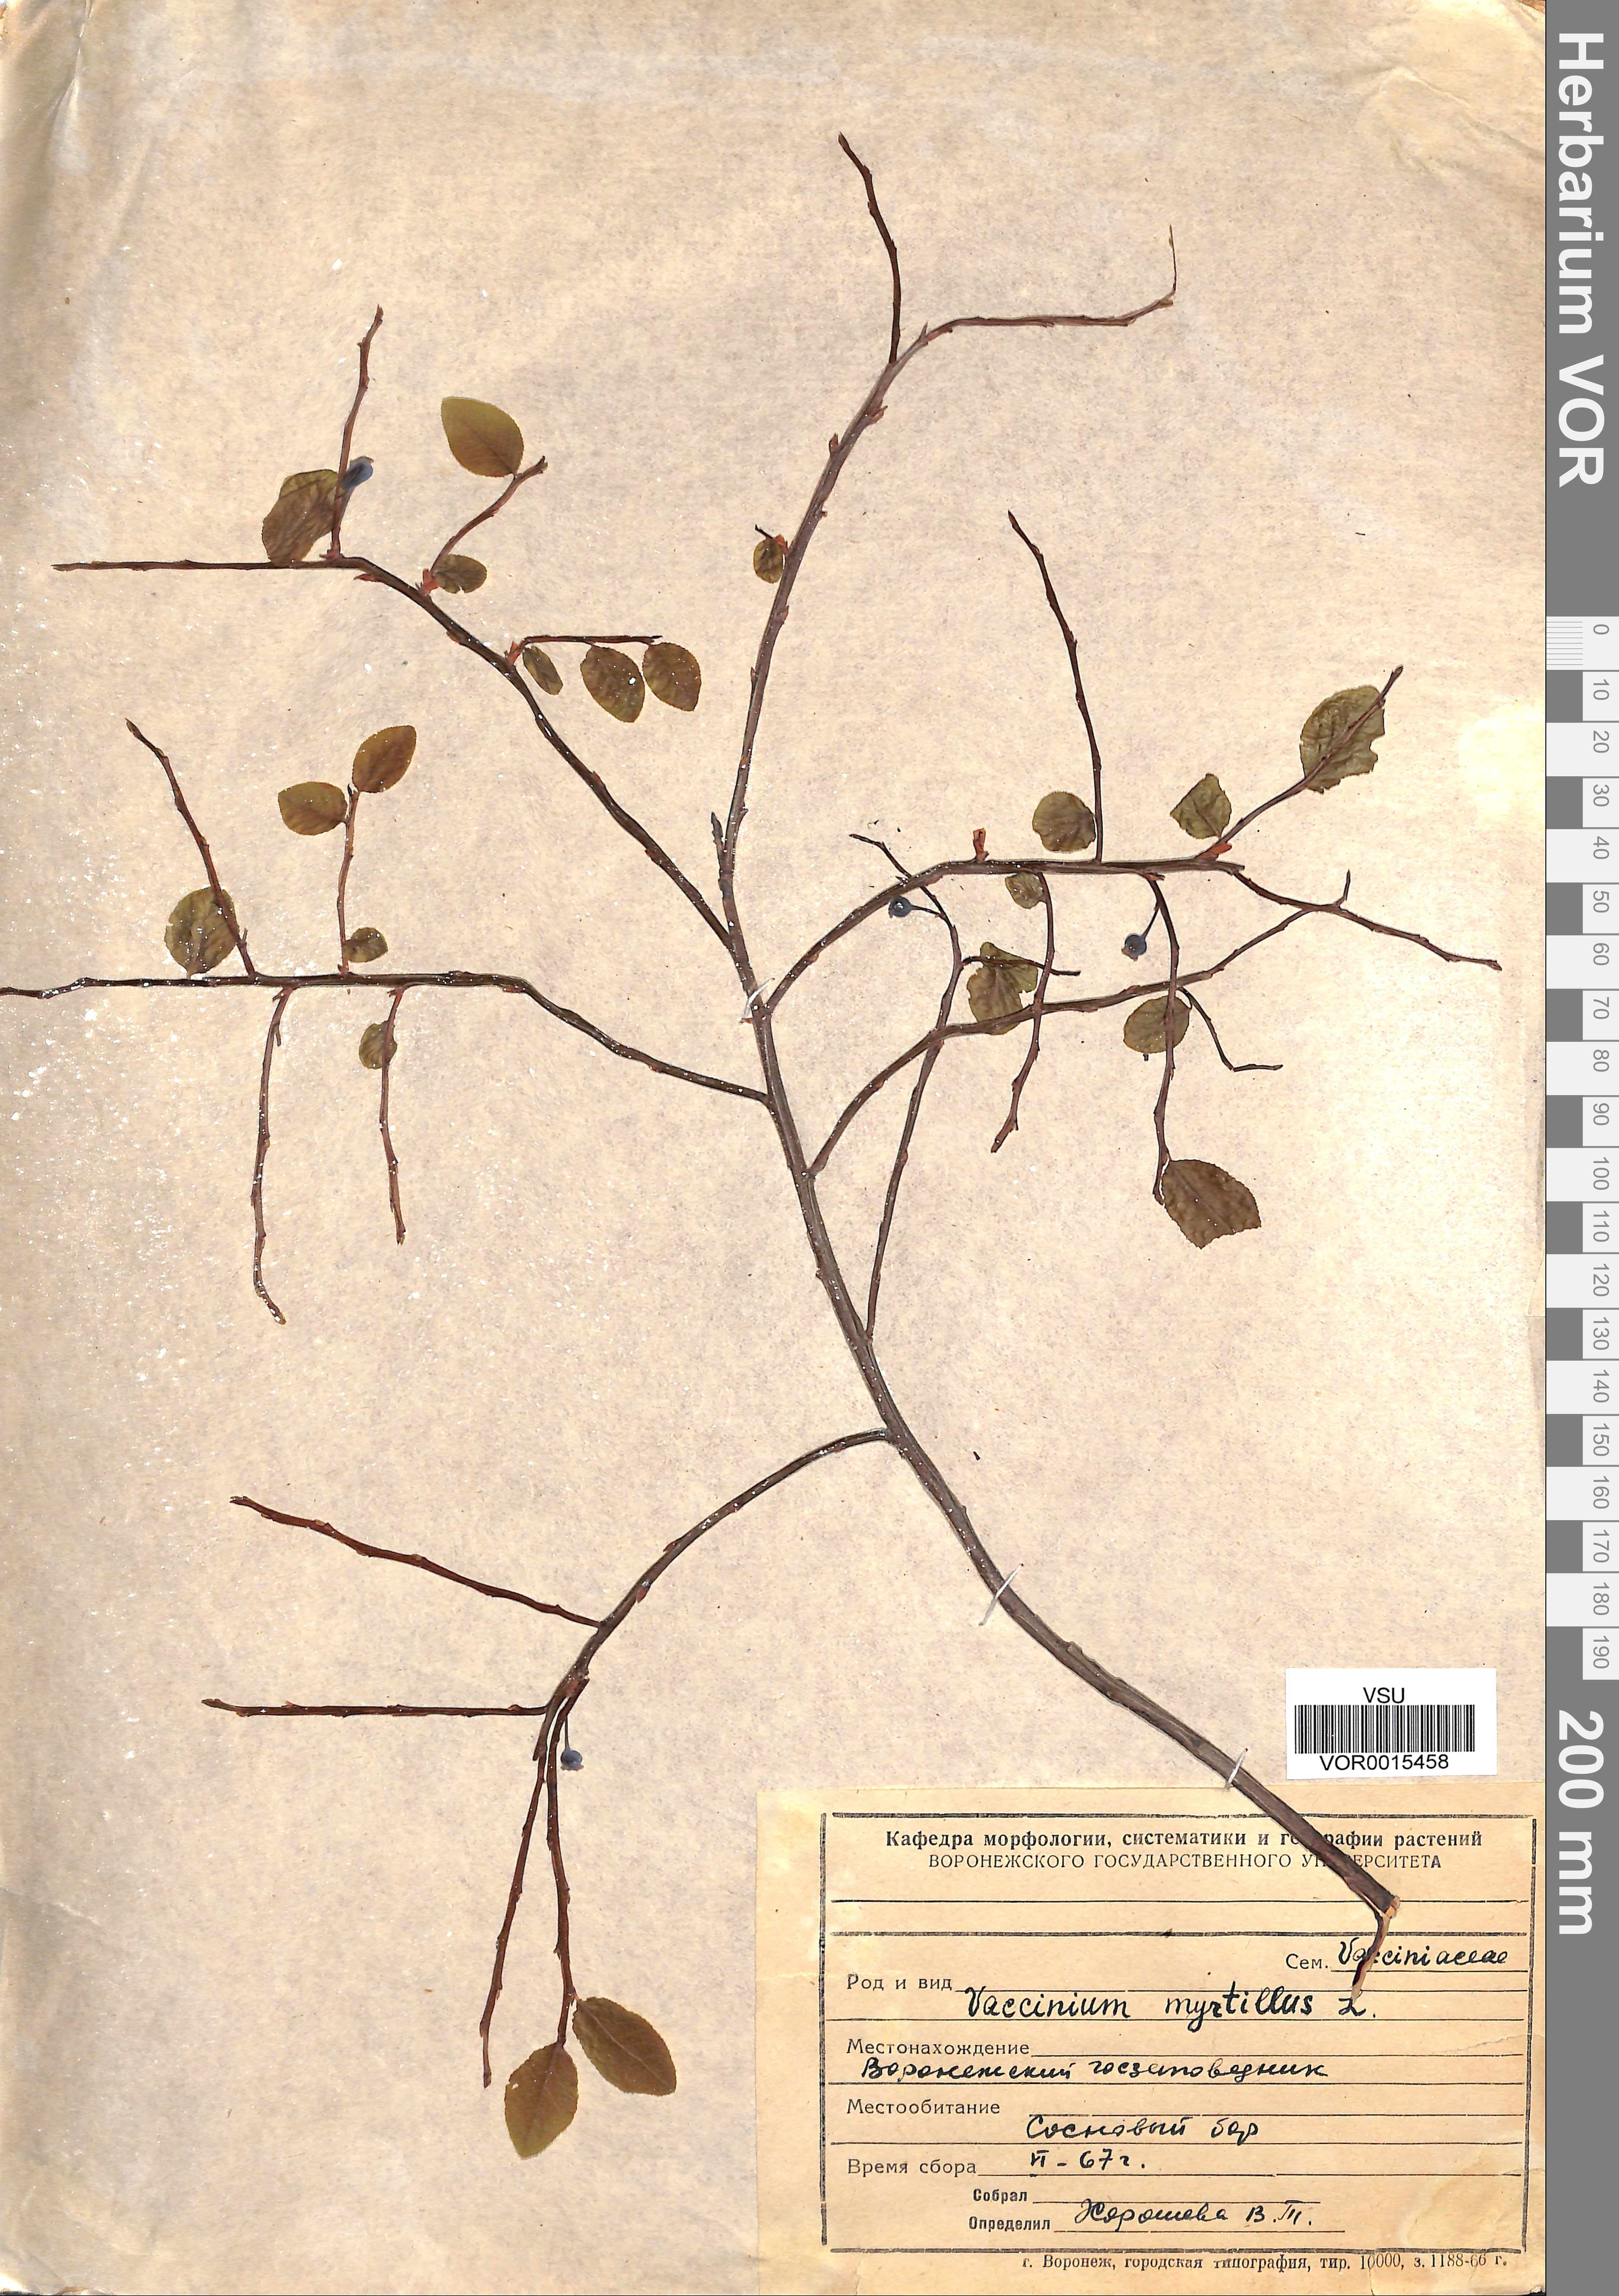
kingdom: Plantae
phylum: Tracheophyta
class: Magnoliopsida
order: Ericales
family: Ericaceae
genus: Vaccinium
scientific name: Vaccinium myrtillus
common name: Bilberry
